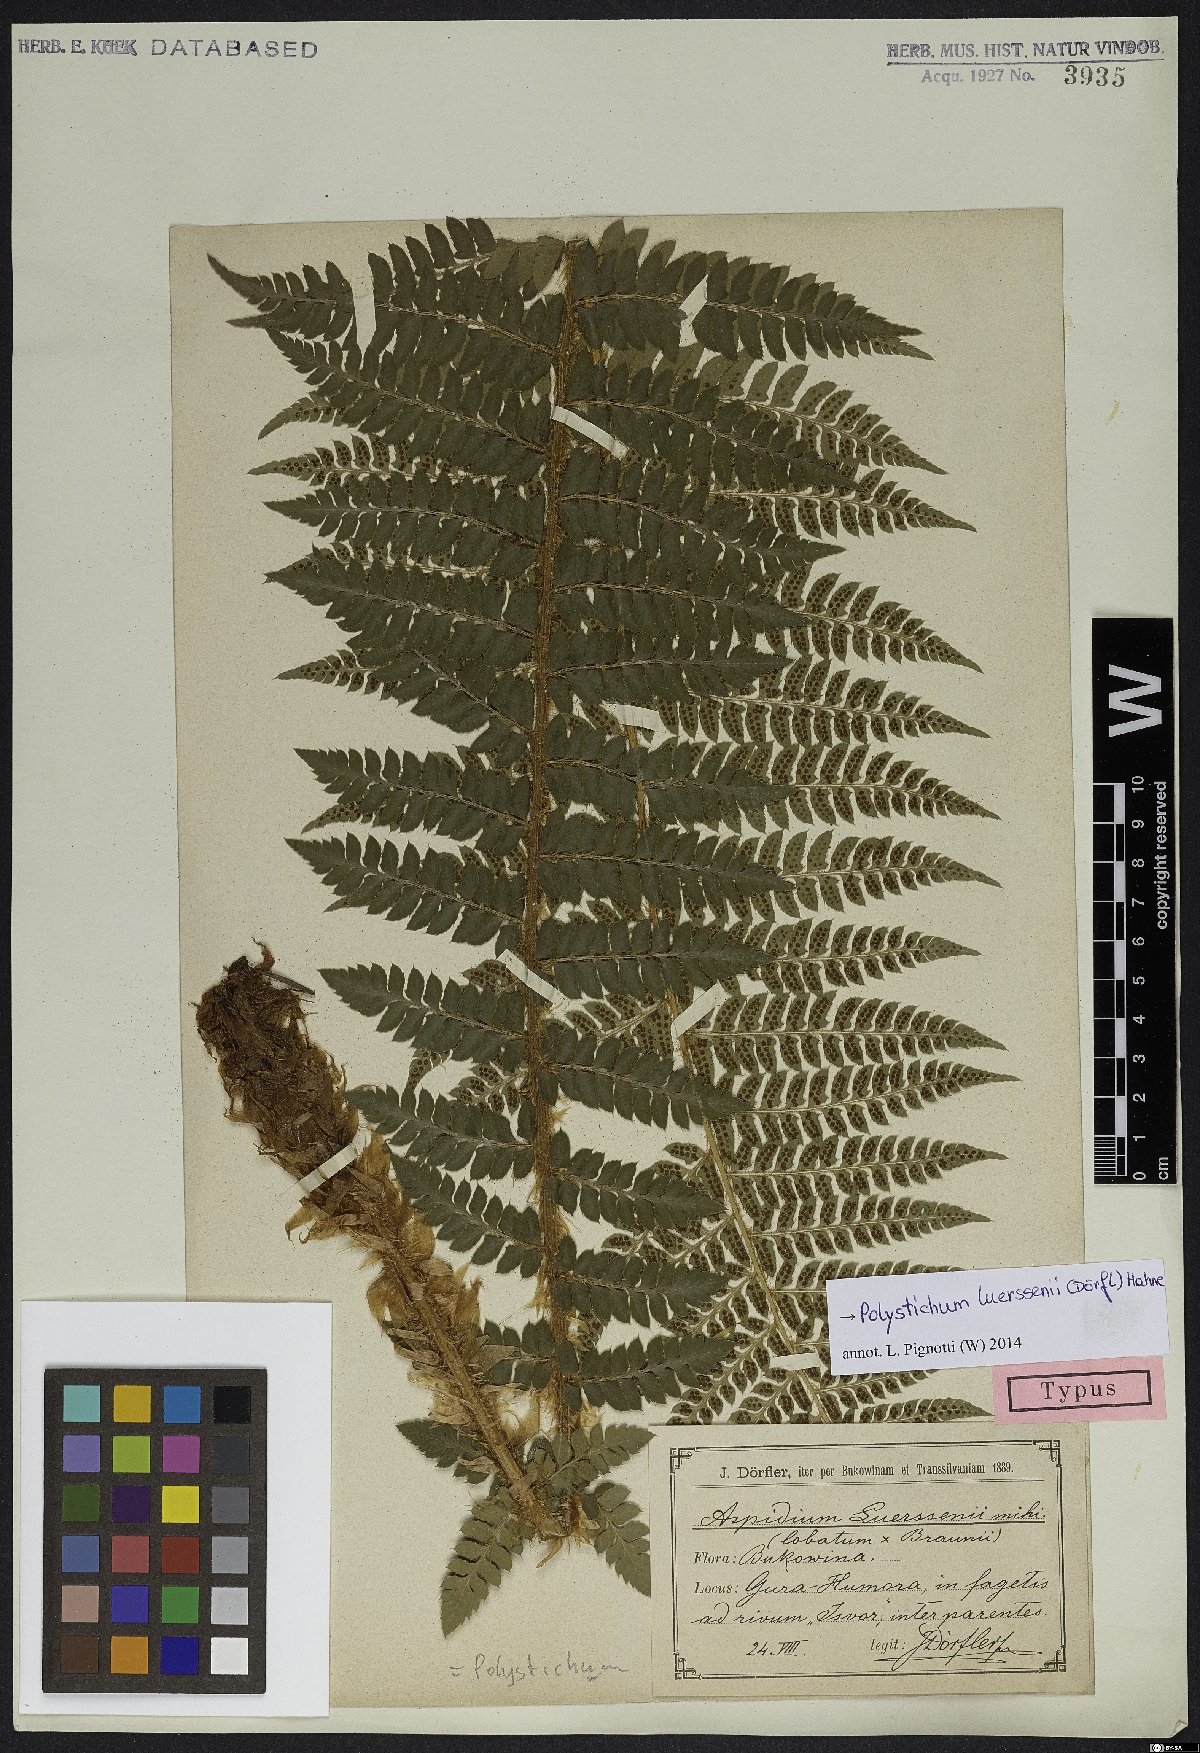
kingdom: Plantae
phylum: Tracheophyta
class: Polypodiopsida
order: Polypodiales
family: Dryopteridaceae
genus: Polystichum
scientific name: Polystichum luerssenii
